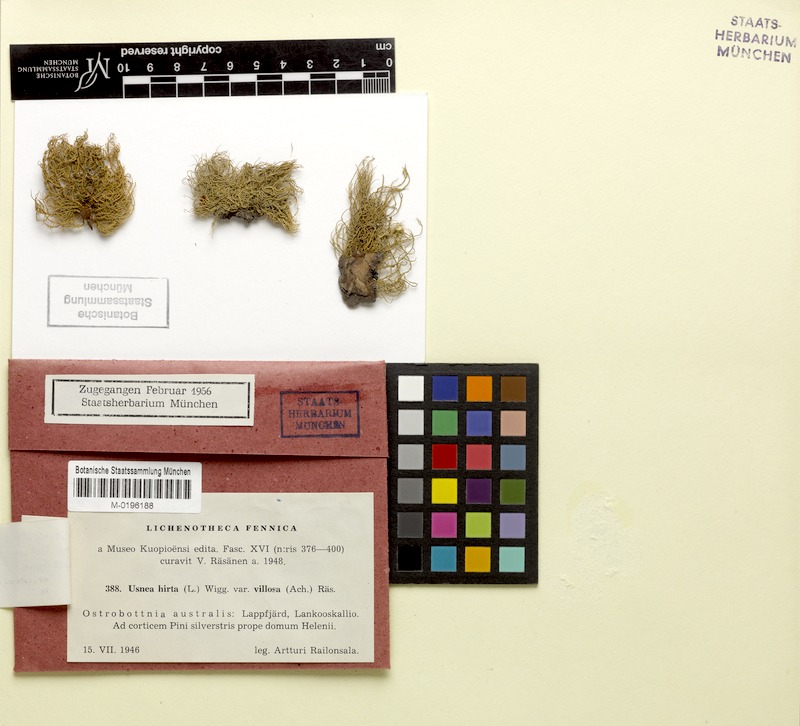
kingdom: Fungi
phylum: Ascomycota
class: Lecanoromycetes
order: Lecanorales
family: Parmeliaceae
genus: Usnea
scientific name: Usnea hirta
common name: Bristly beard lichen
